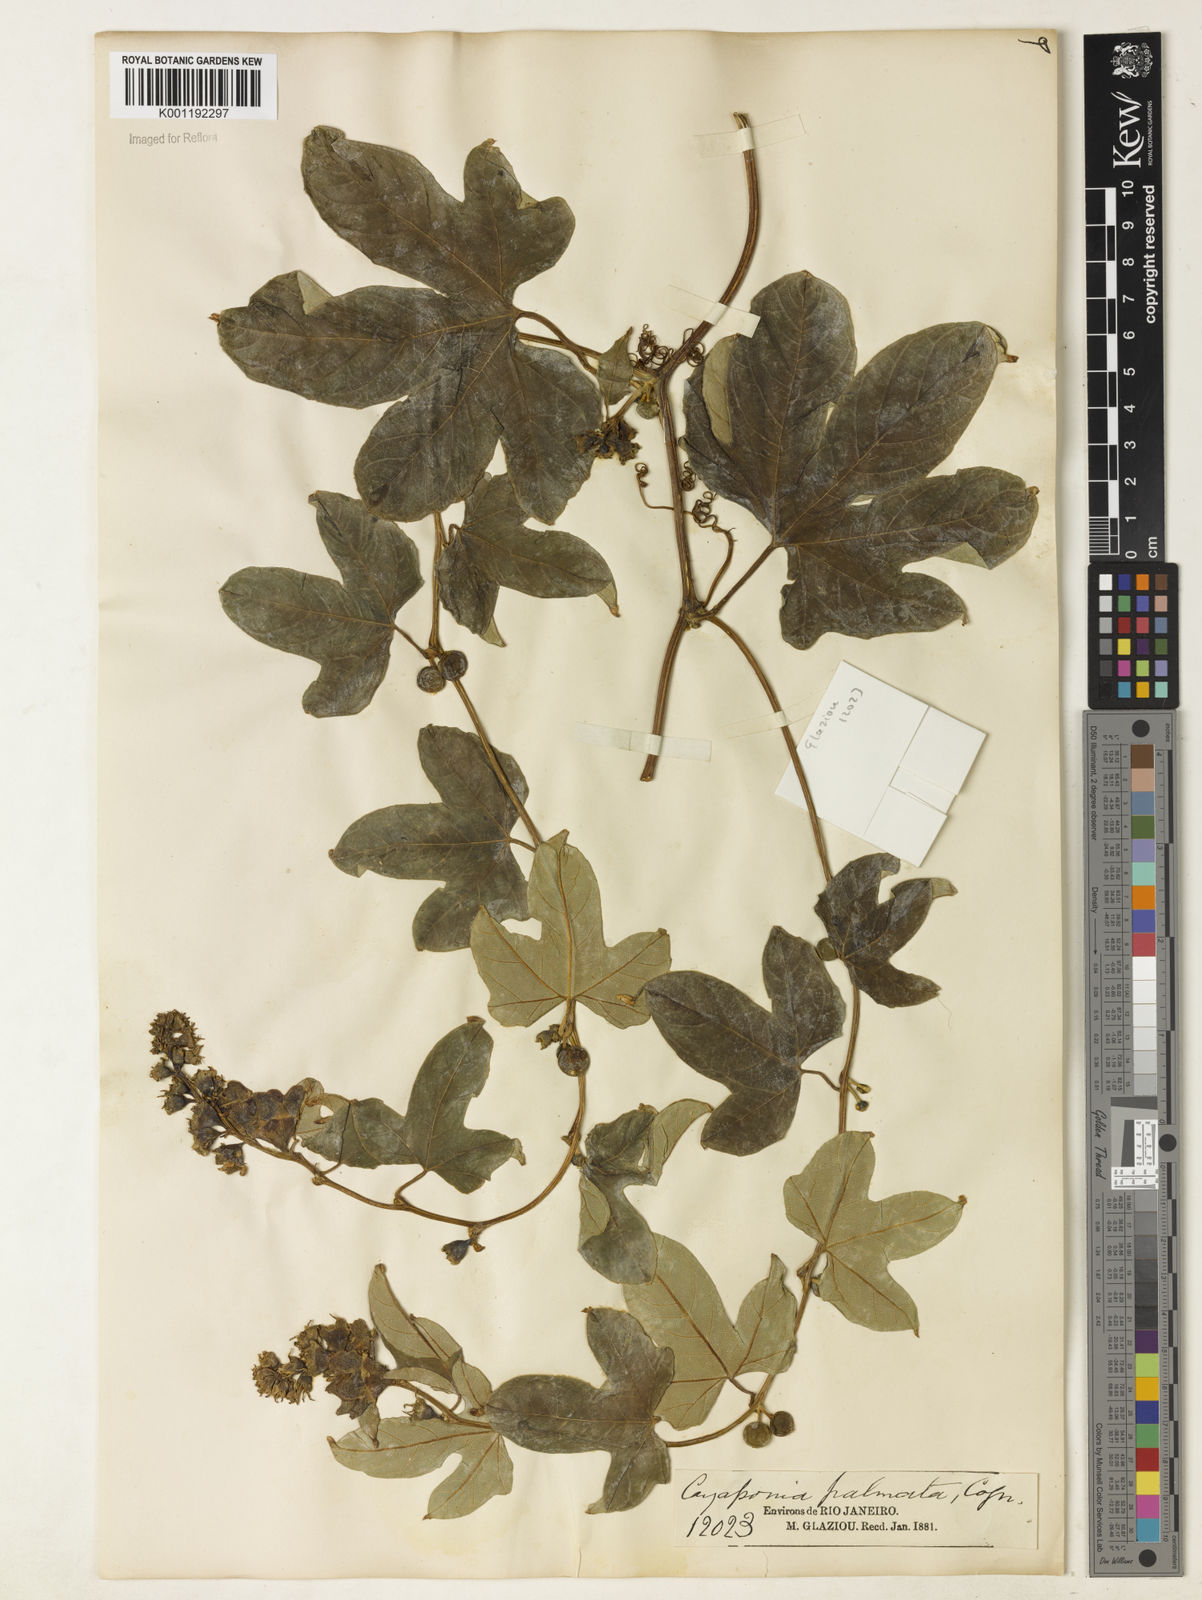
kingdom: Plantae
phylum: Tracheophyta
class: Magnoliopsida
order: Cucurbitales
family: Cucurbitaceae
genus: Cayaponia
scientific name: Cayaponia palmata
